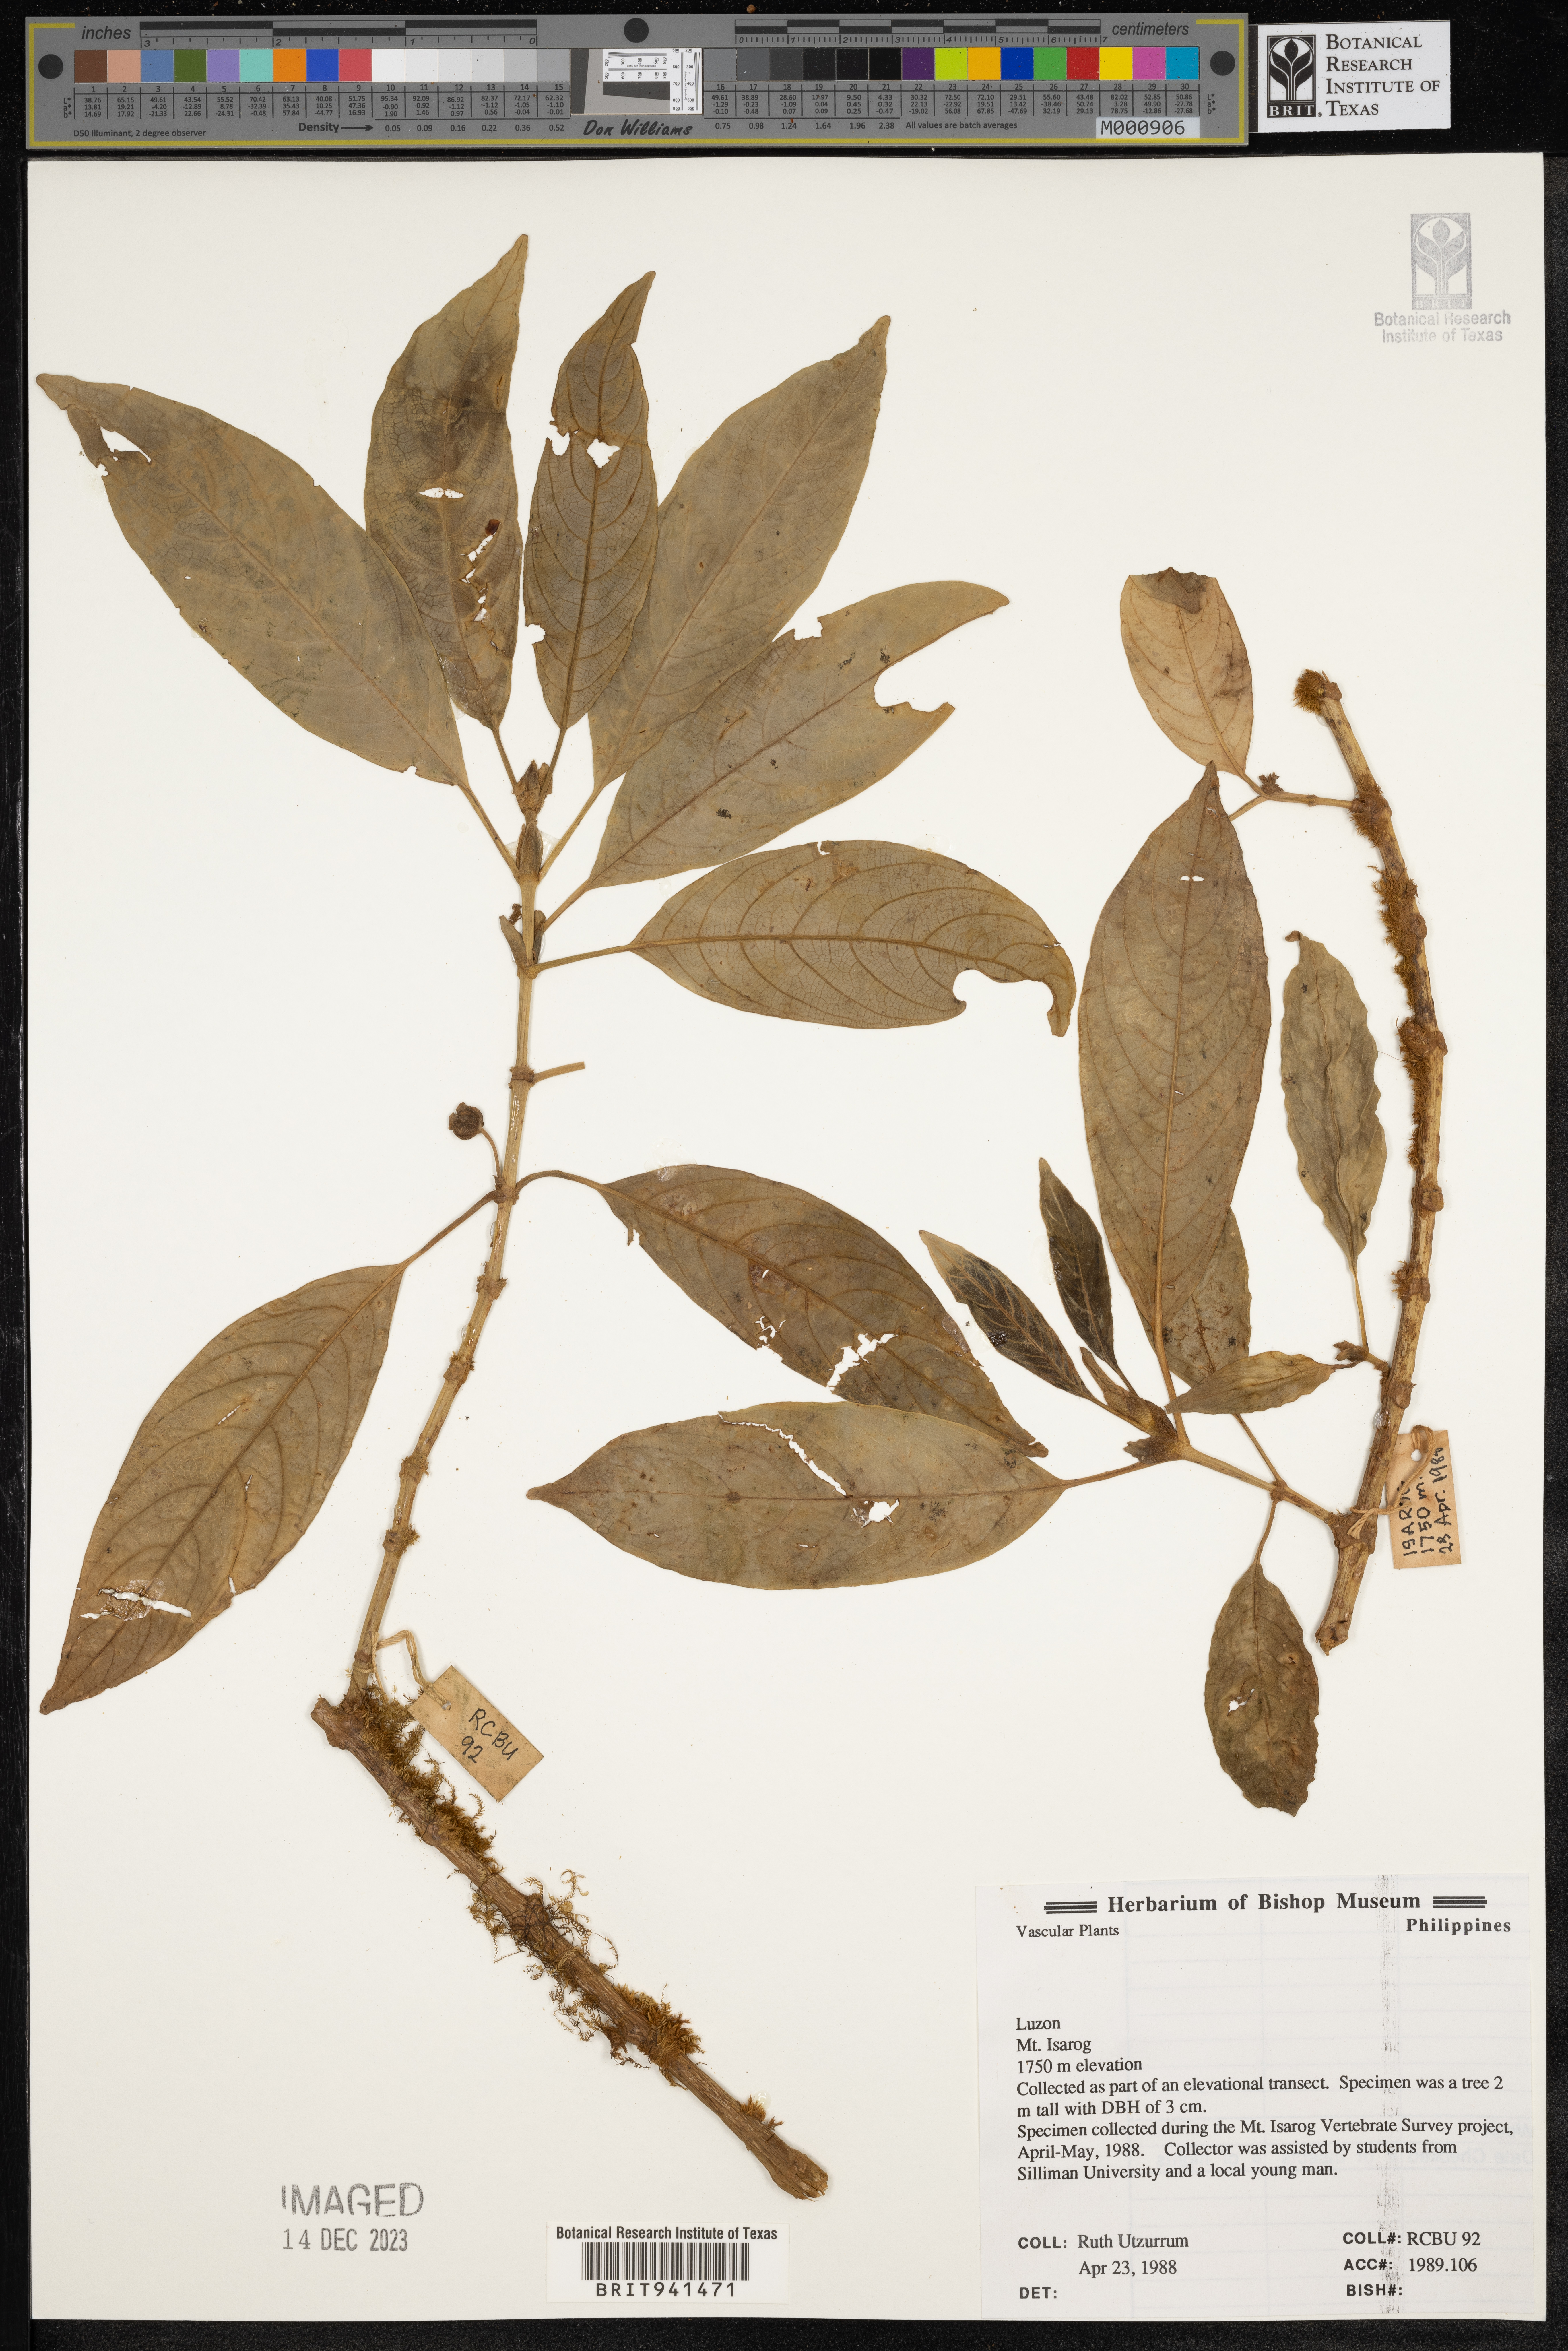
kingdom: Plantae
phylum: Tracheophyta
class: Magnoliopsida
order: Gentianales
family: Rubiaceae
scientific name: Rubiaceae
